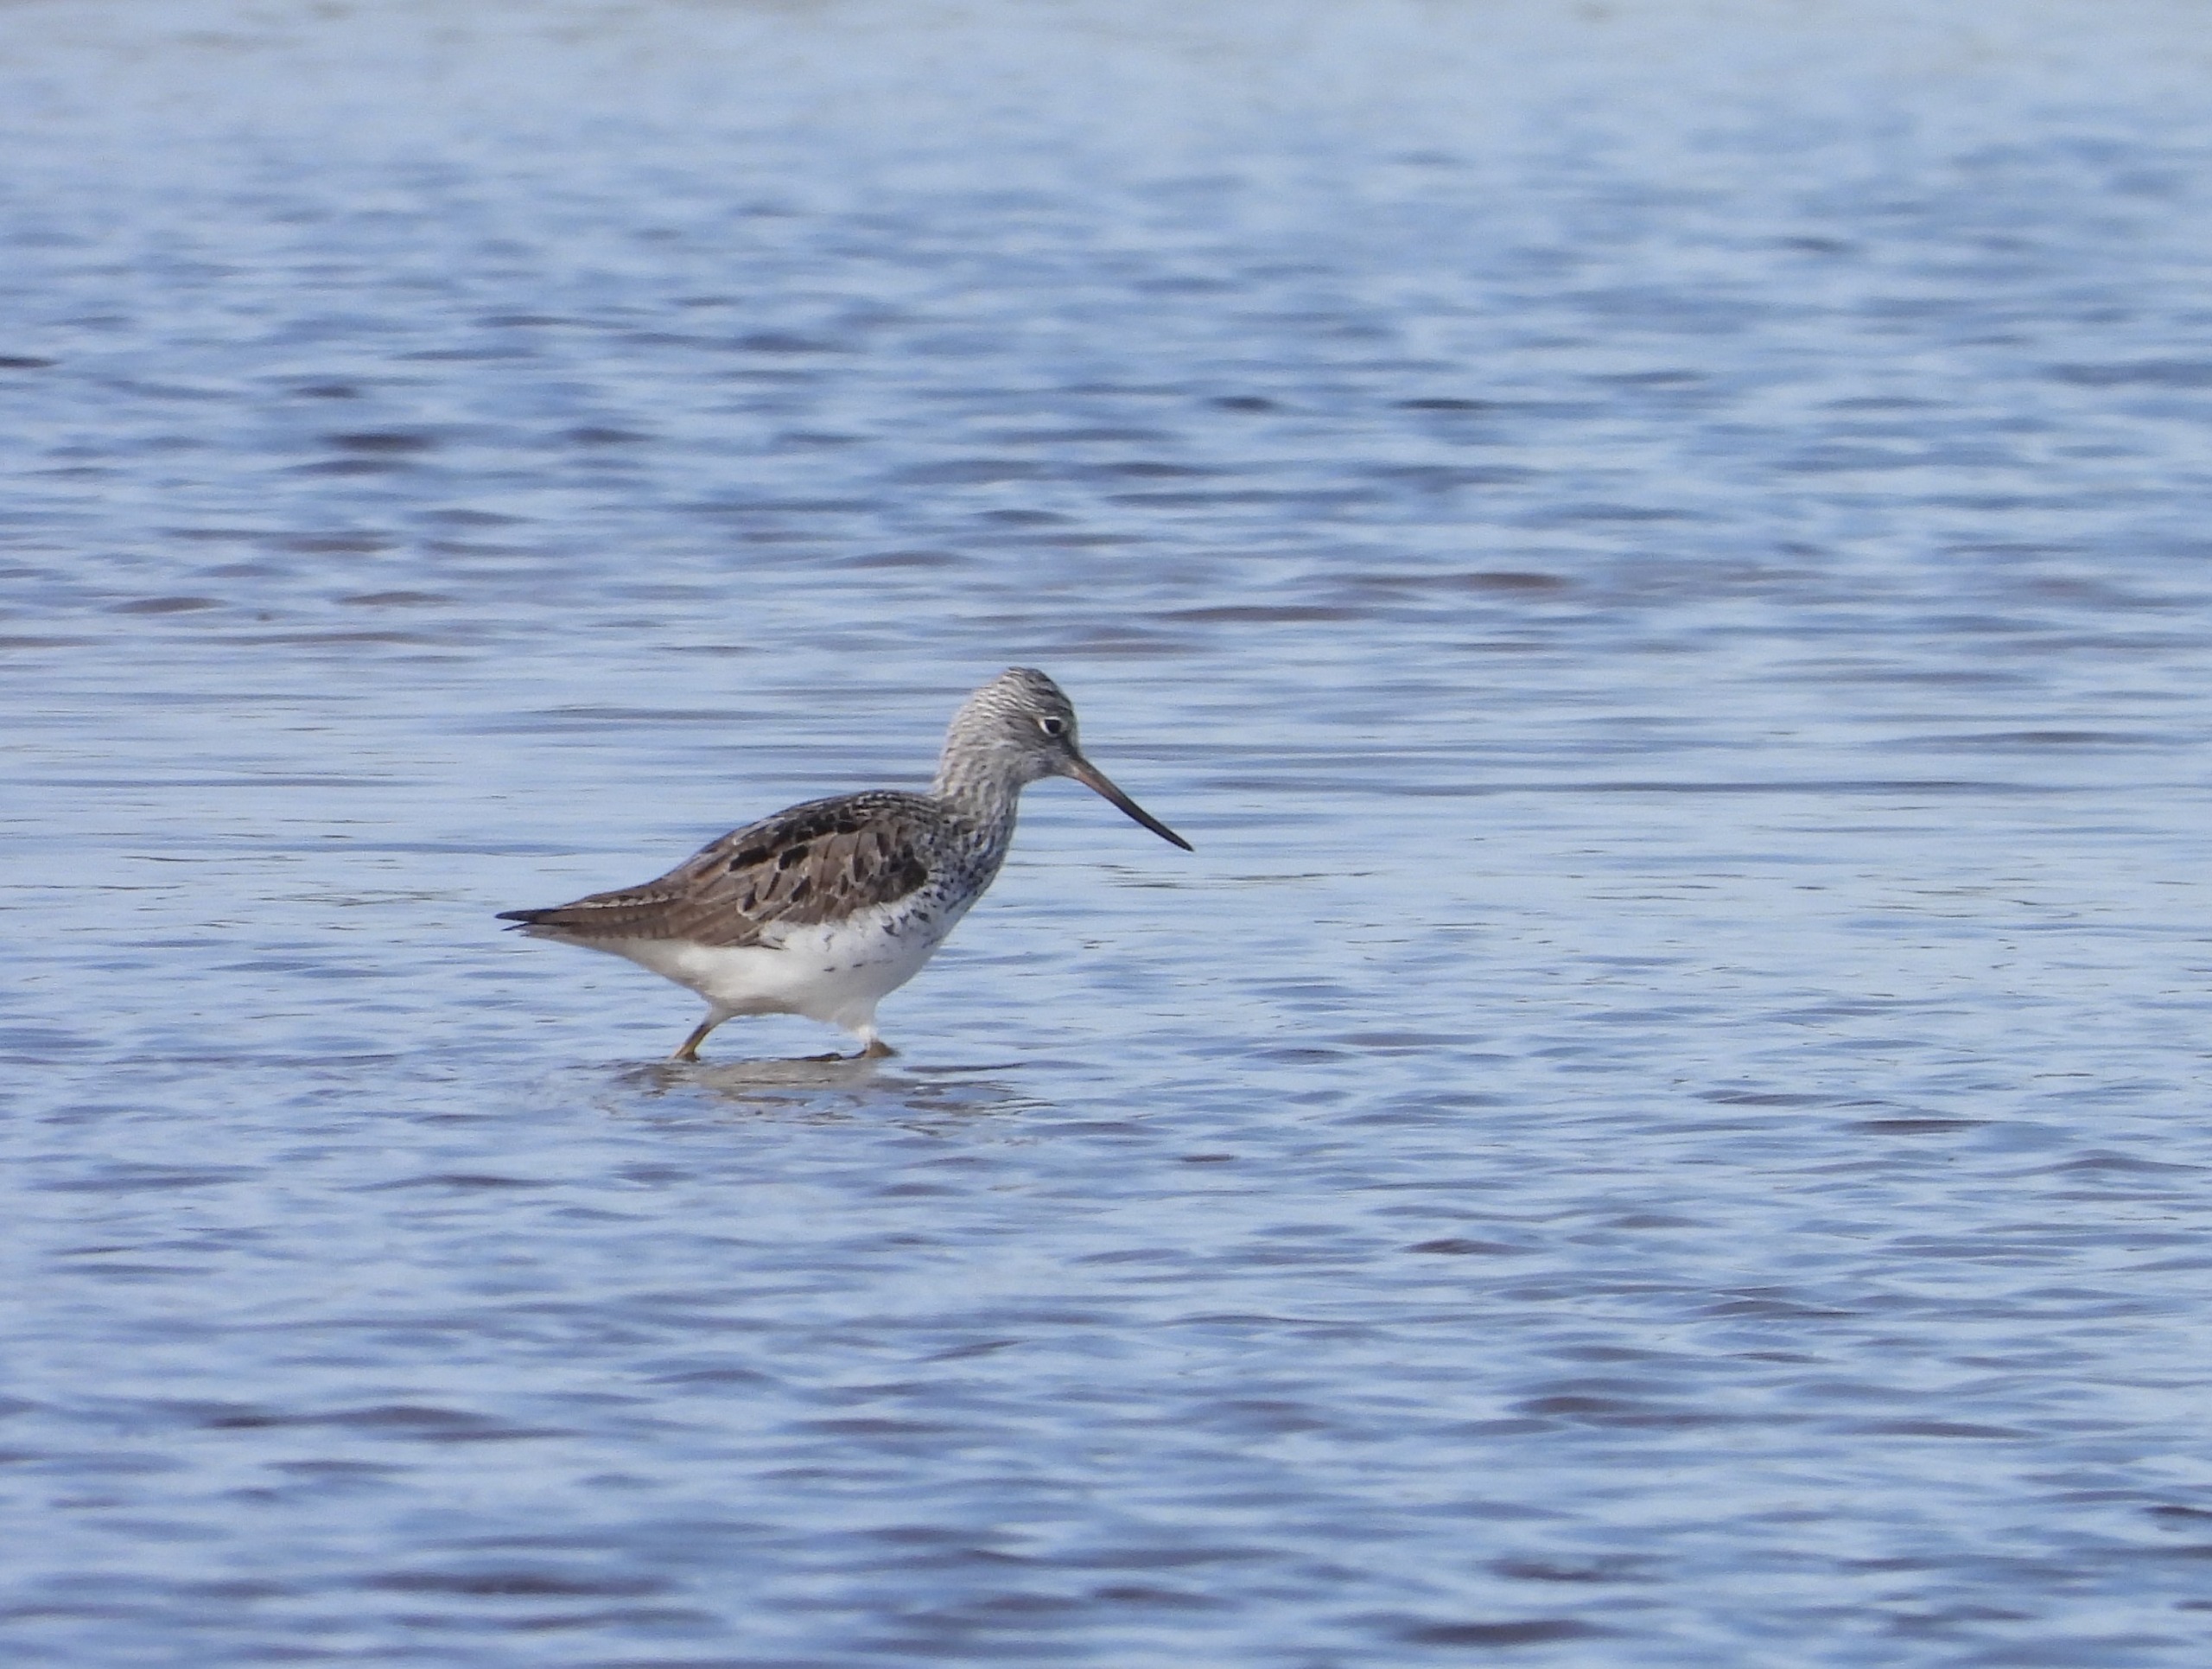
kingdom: Animalia
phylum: Chordata
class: Aves
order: Charadriiformes
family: Scolopacidae
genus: Tringa
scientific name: Tringa nebularia
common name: Hvidklire
